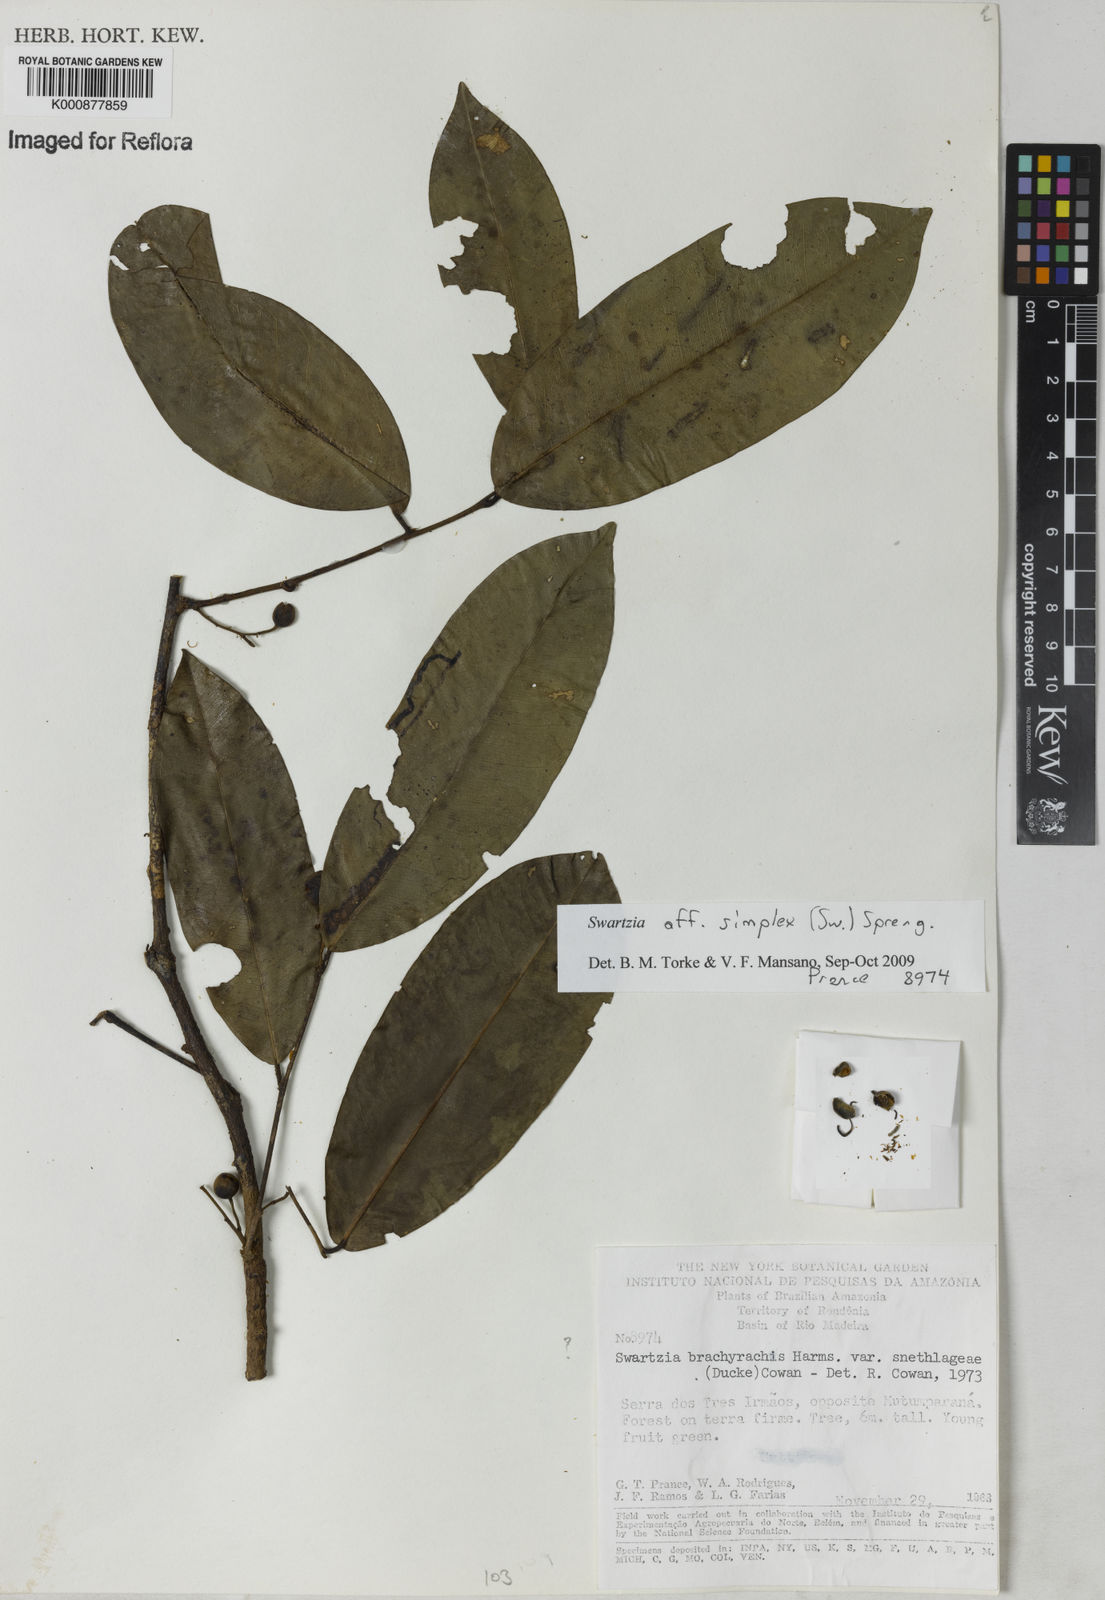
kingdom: Plantae
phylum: Tracheophyta
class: Magnoliopsida
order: Fabales
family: Fabaceae
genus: Swartzia
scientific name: Swartzia simplex
